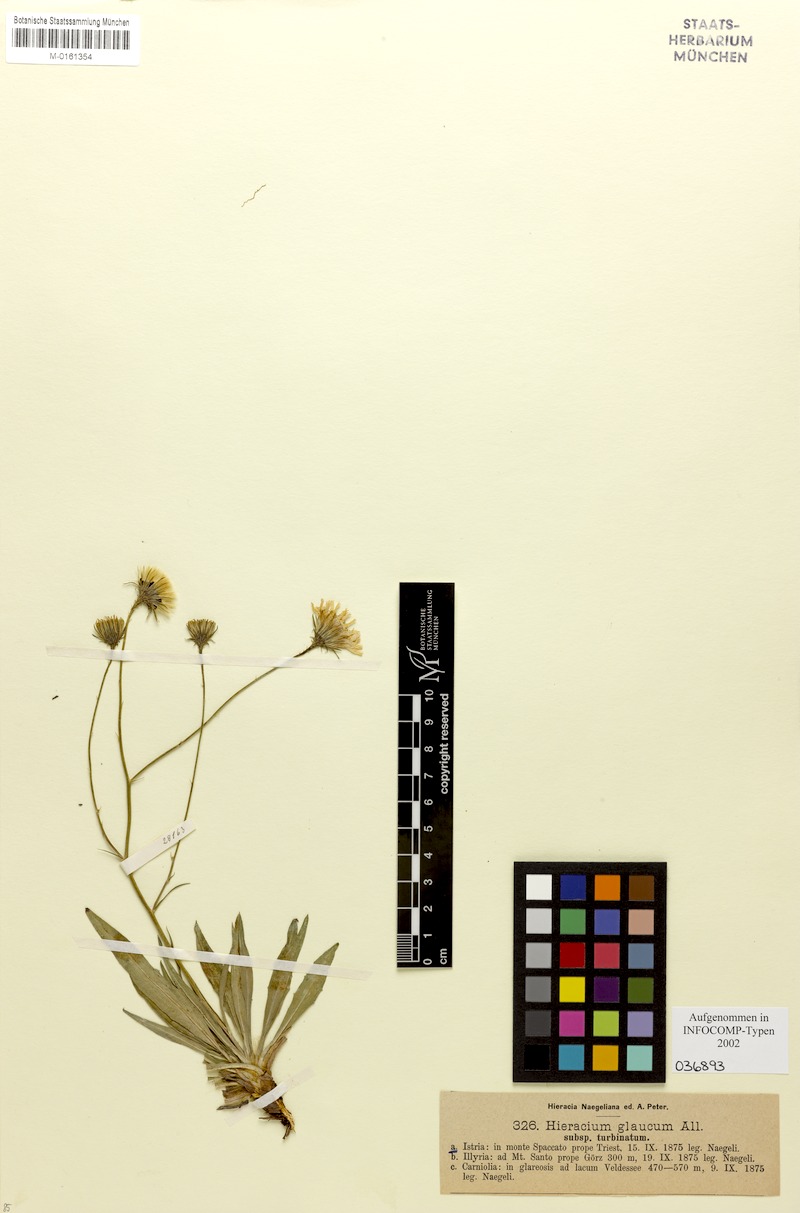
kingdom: Plantae
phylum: Tracheophyta
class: Magnoliopsida
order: Asterales
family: Asteraceae
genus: Hieracium
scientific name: Hieracium glaucum
